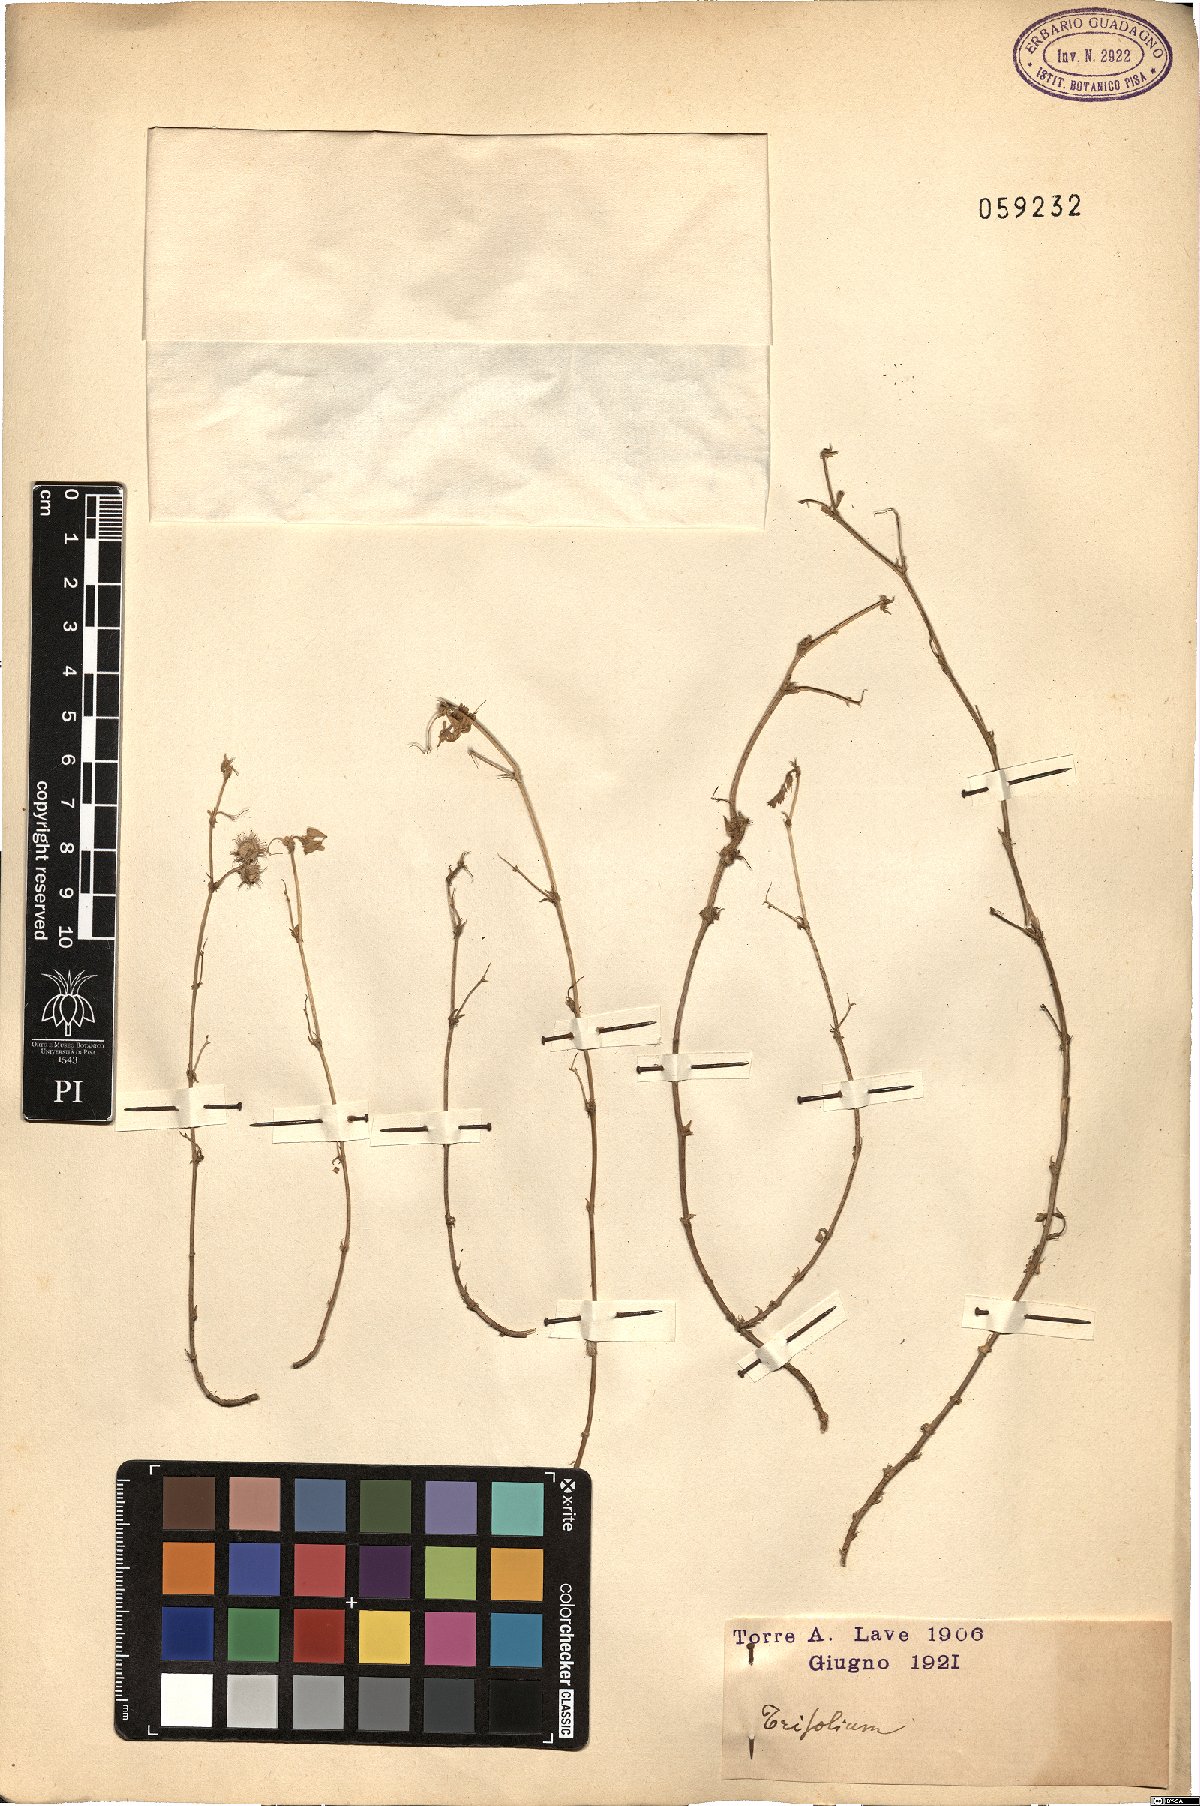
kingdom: Plantae
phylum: Tracheophyta
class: Magnoliopsida
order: Fabales
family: Fabaceae
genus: Trifolium
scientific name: Trifolium
